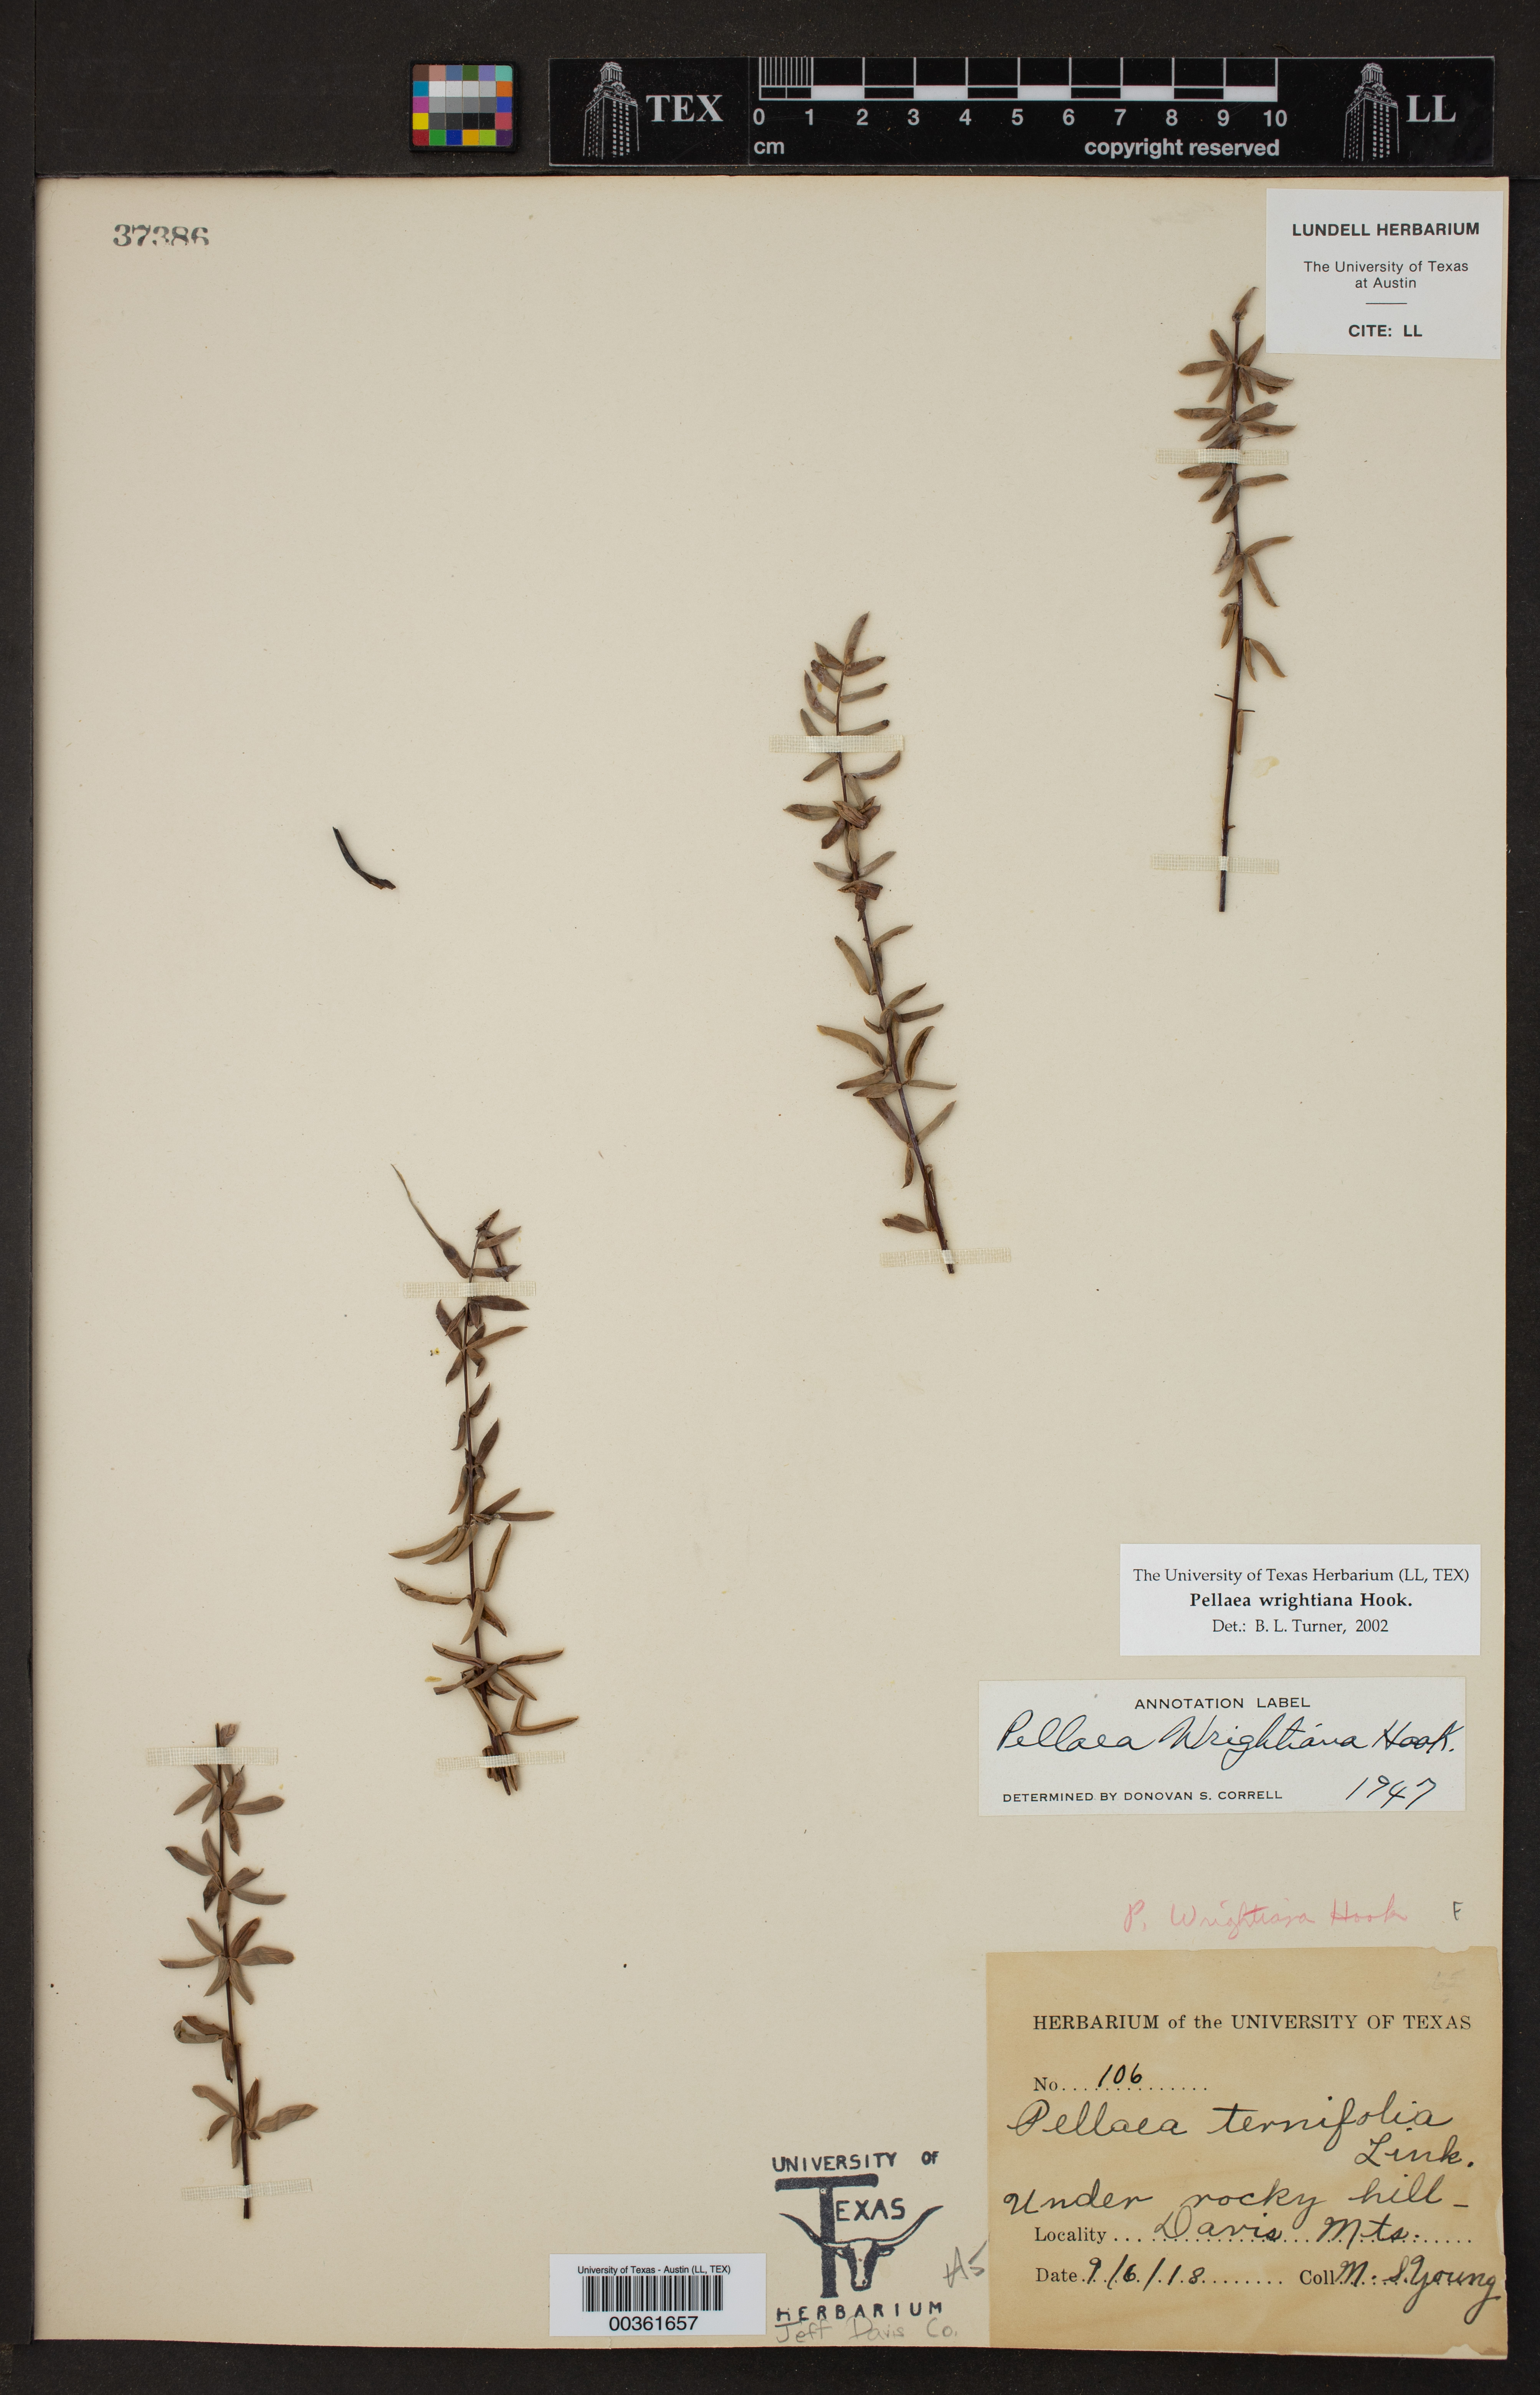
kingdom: Plantae
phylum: Tracheophyta
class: Polypodiopsida
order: Polypodiales
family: Pteridaceae
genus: Pellaea
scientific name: Pellaea wrightiana
